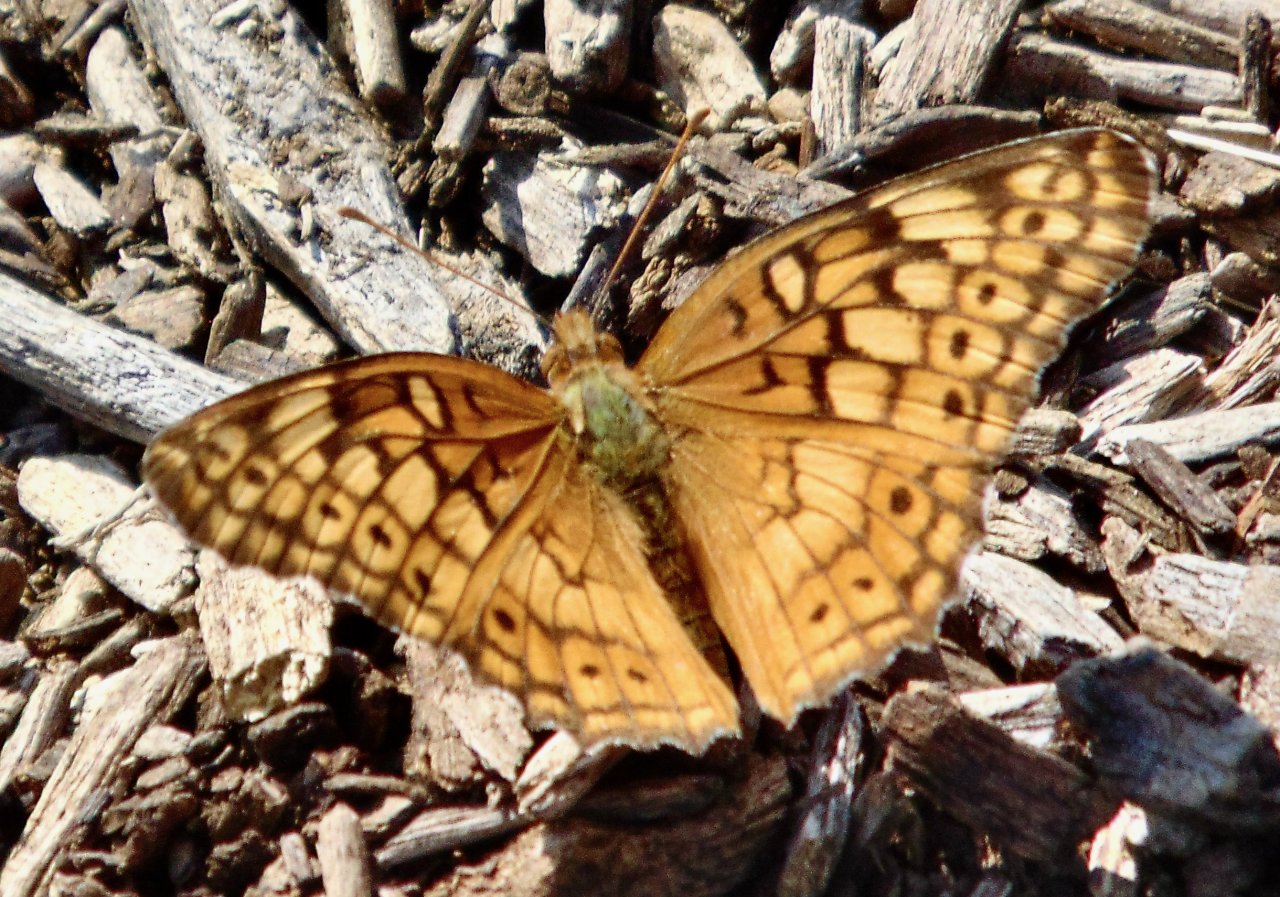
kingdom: Animalia
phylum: Arthropoda
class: Insecta
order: Lepidoptera
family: Nymphalidae
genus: Euptoieta
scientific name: Euptoieta claudia
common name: Variegated Fritillary
